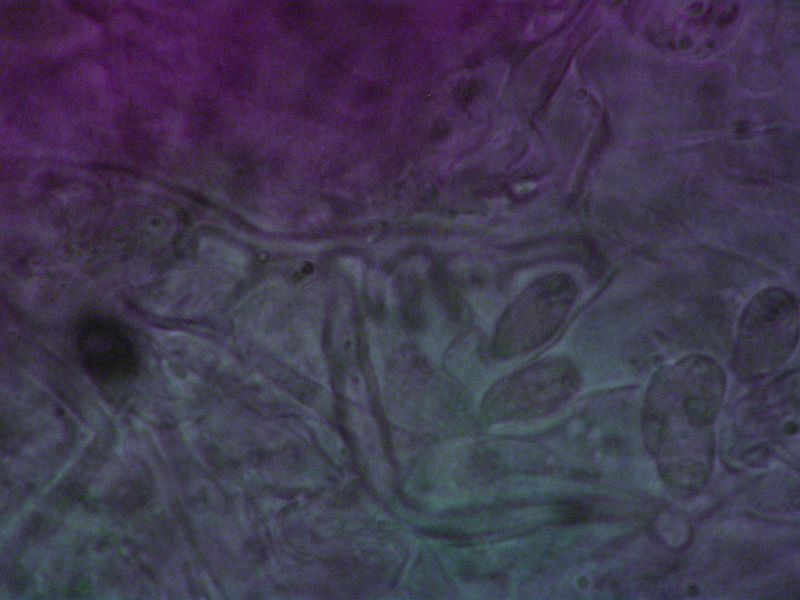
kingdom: Fungi
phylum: Basidiomycota
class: Agaricomycetes
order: Agaricales
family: Mycenaceae
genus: Hemimycena
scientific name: Hemimycena hirsuta
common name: håret huesvamp
